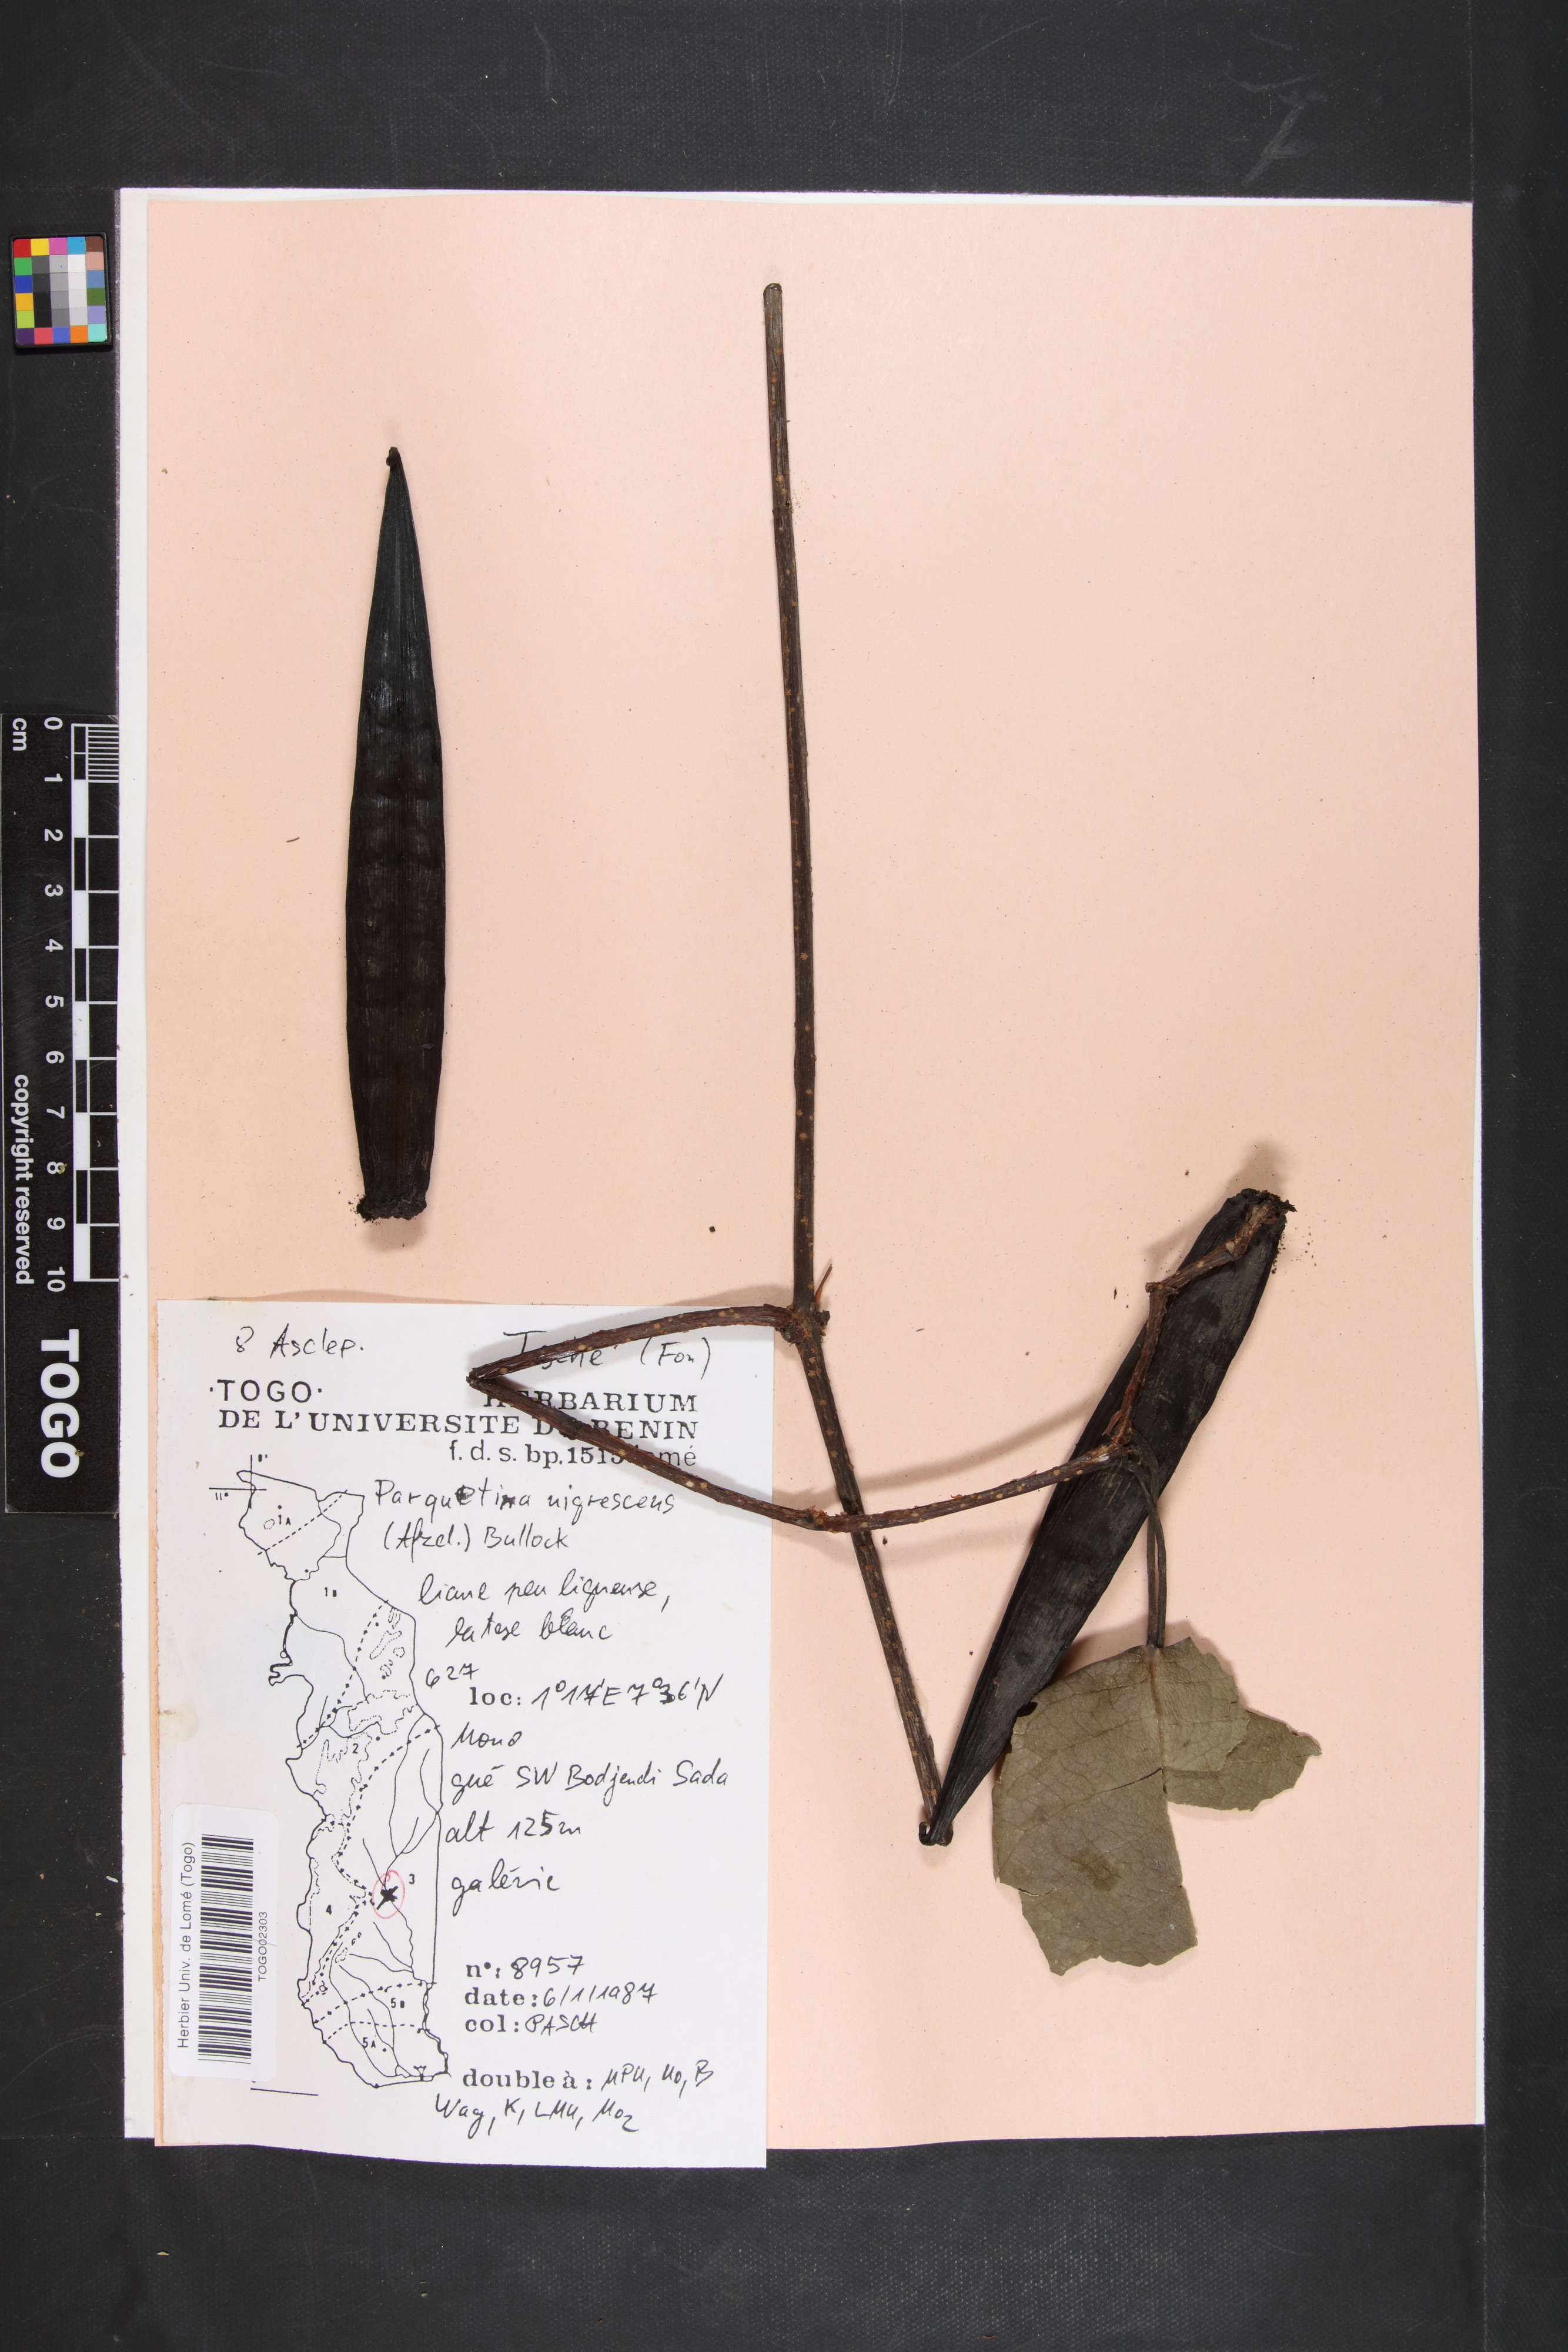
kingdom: Plantae
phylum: Tracheophyta
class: Magnoliopsida
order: Gentianales
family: Apocynaceae
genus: Cryptolepis
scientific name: Cryptolepis nigrescens
